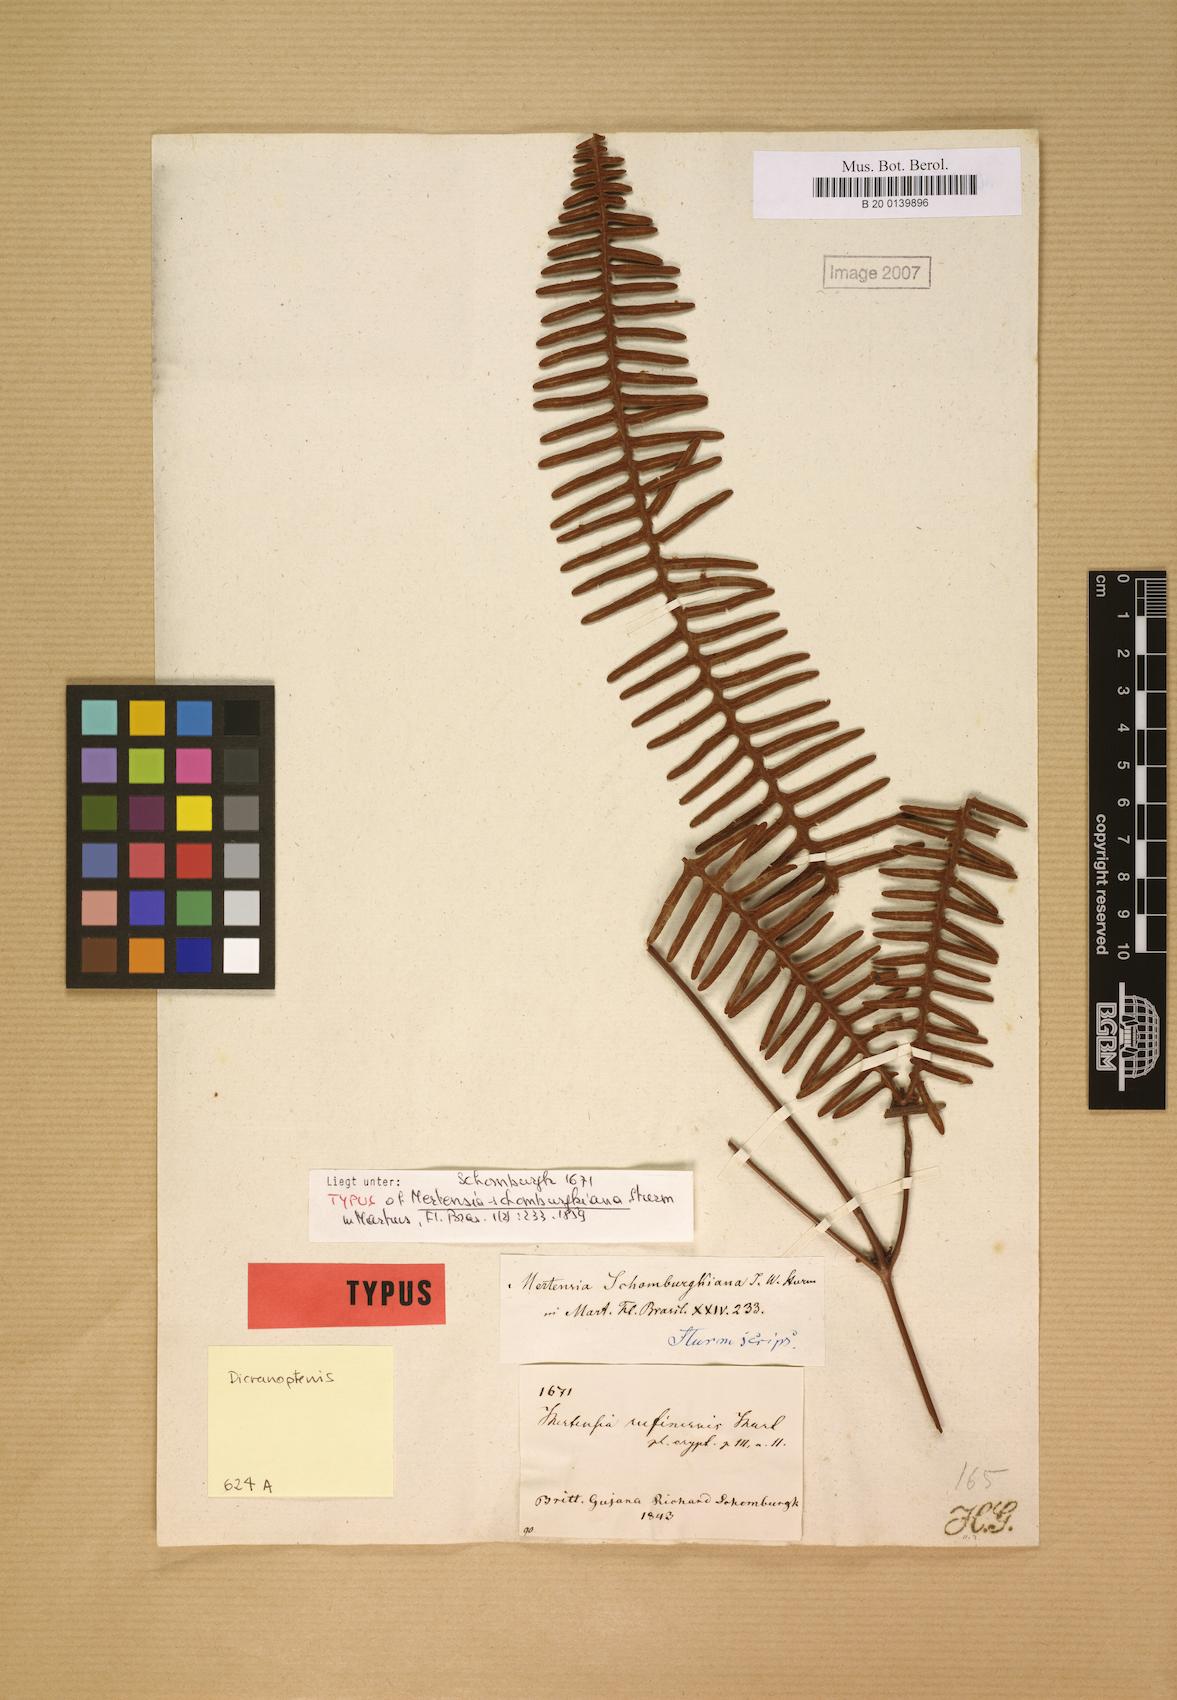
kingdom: Plantae
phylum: Tracheophyta
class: Polypodiopsida
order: Gleicheniales
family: Gleicheniaceae
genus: Dicranopteris
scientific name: Dicranopteris schomburgkiana
